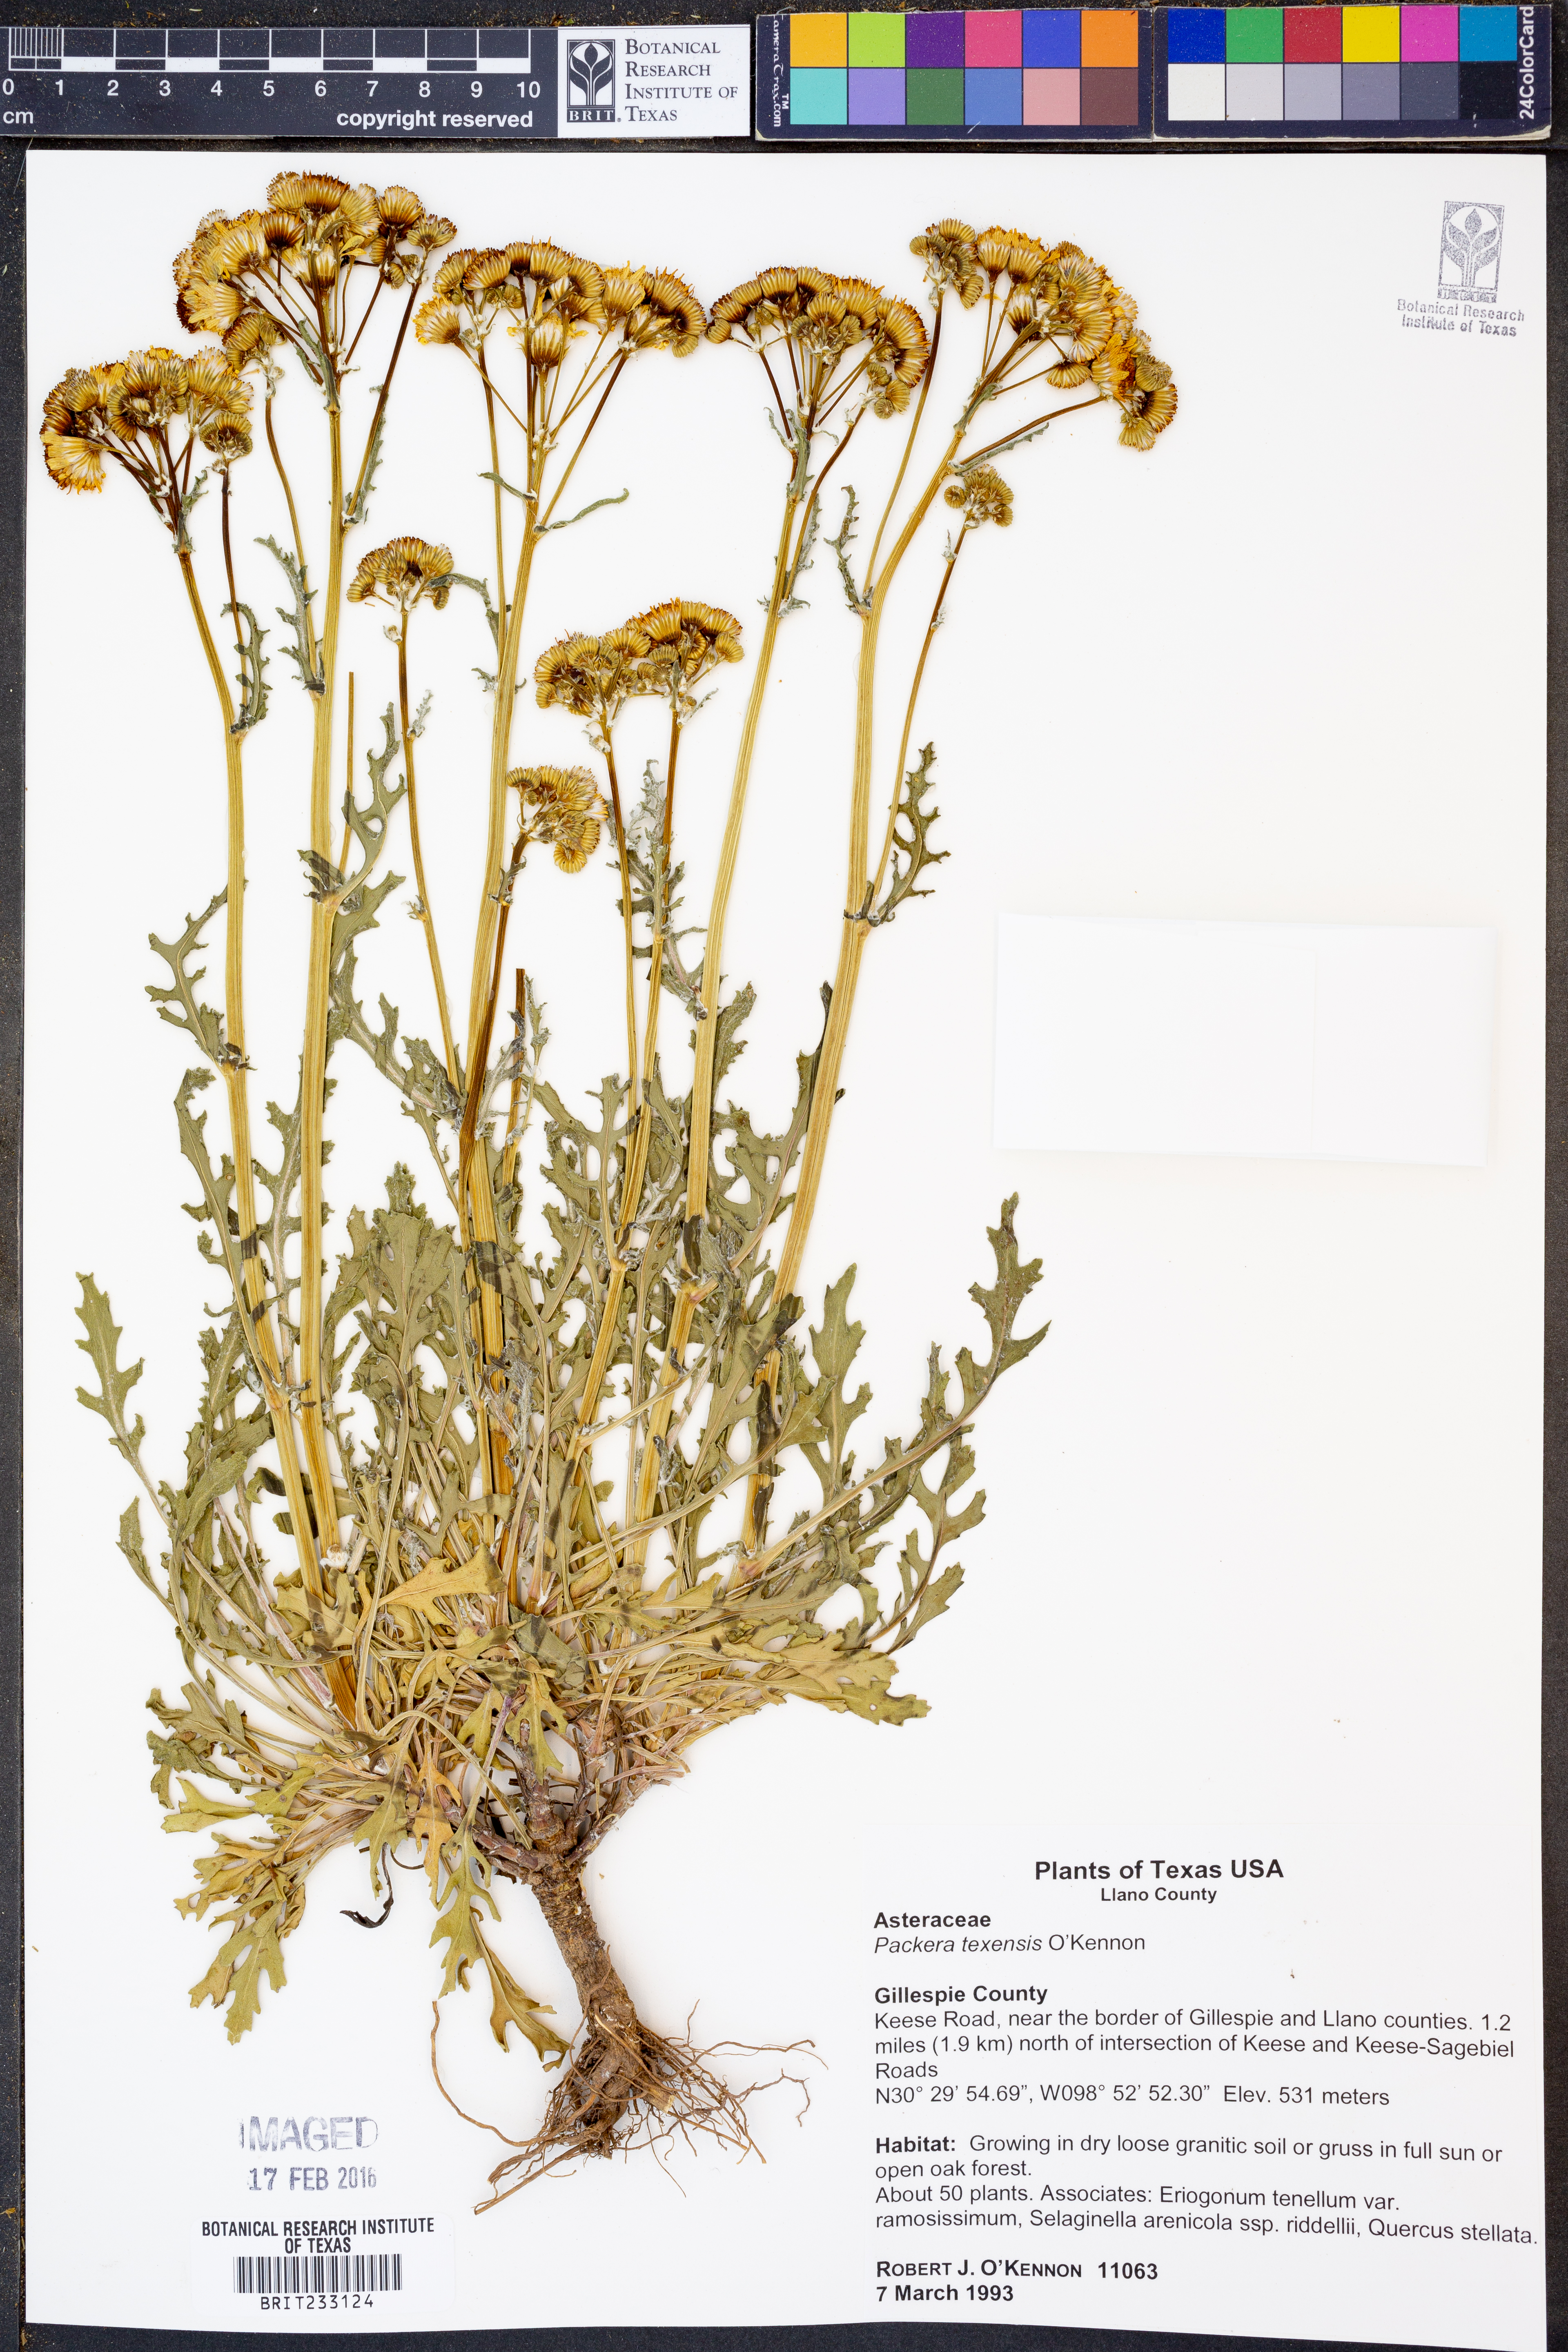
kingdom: Plantae
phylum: Tracheophyta
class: Magnoliopsida
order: Asterales
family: Asteraceae
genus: Packera
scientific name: Packera texensis
